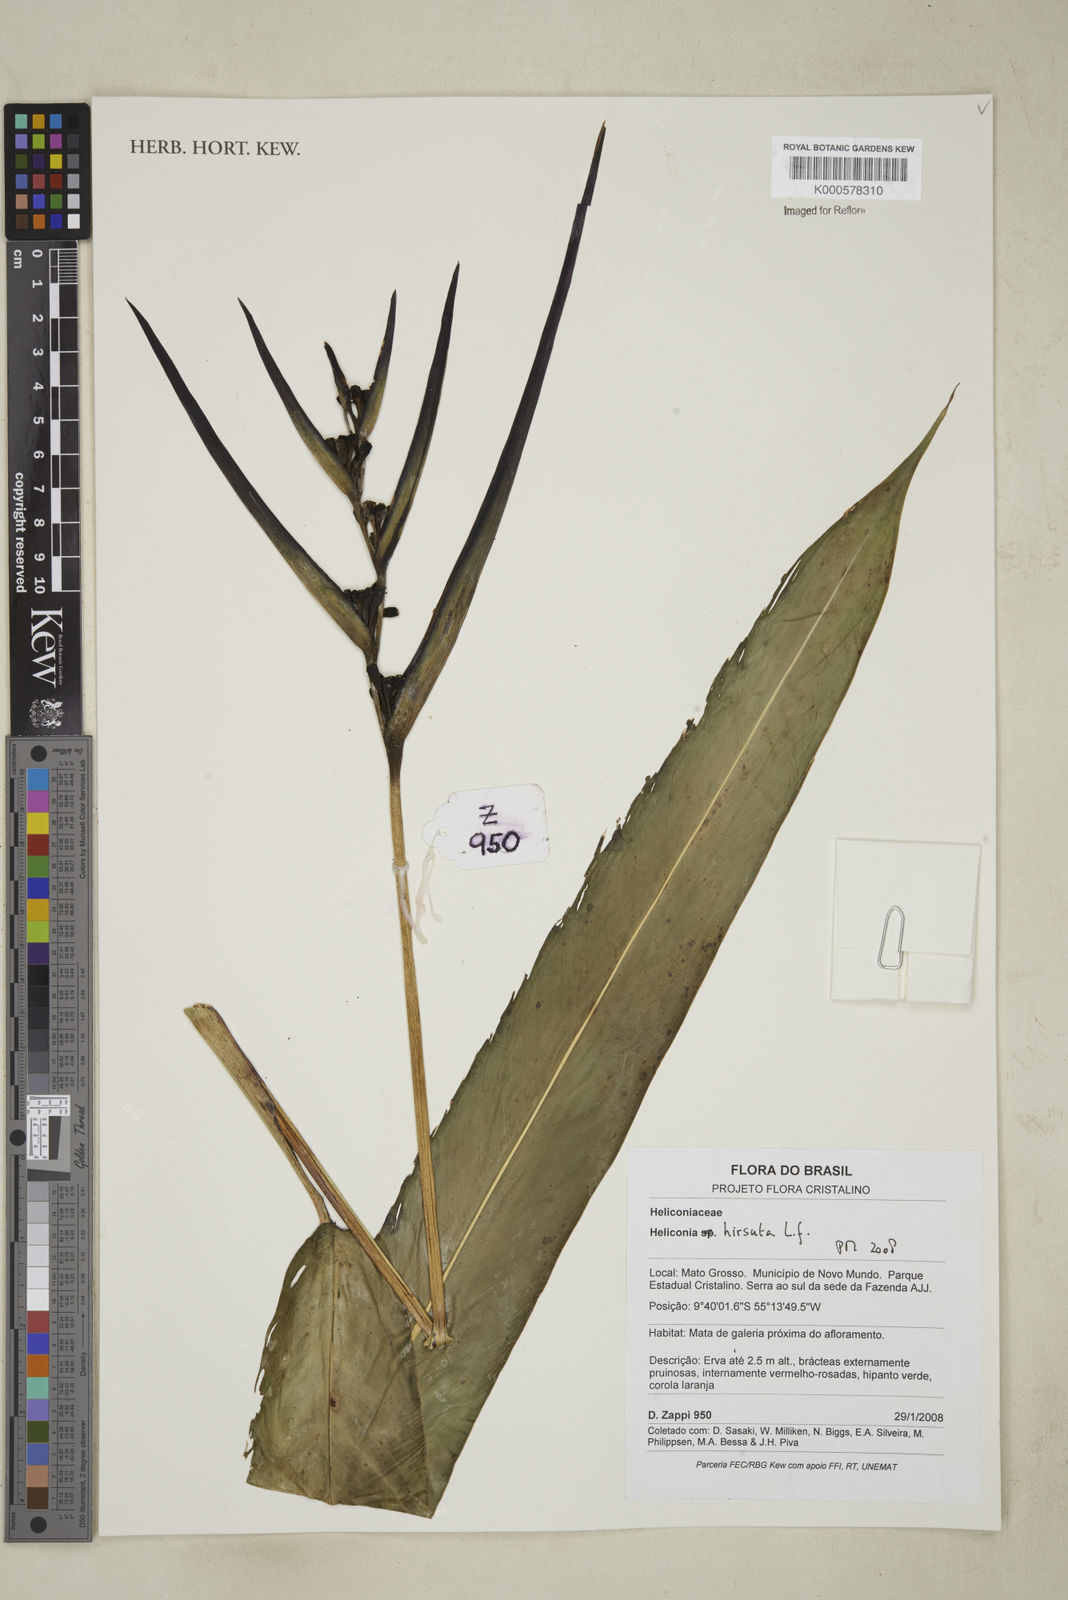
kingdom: Plantae
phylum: Tracheophyta
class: Liliopsida
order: Zingiberales
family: Heliconiaceae
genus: Heliconia
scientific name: Heliconia hirsuta
